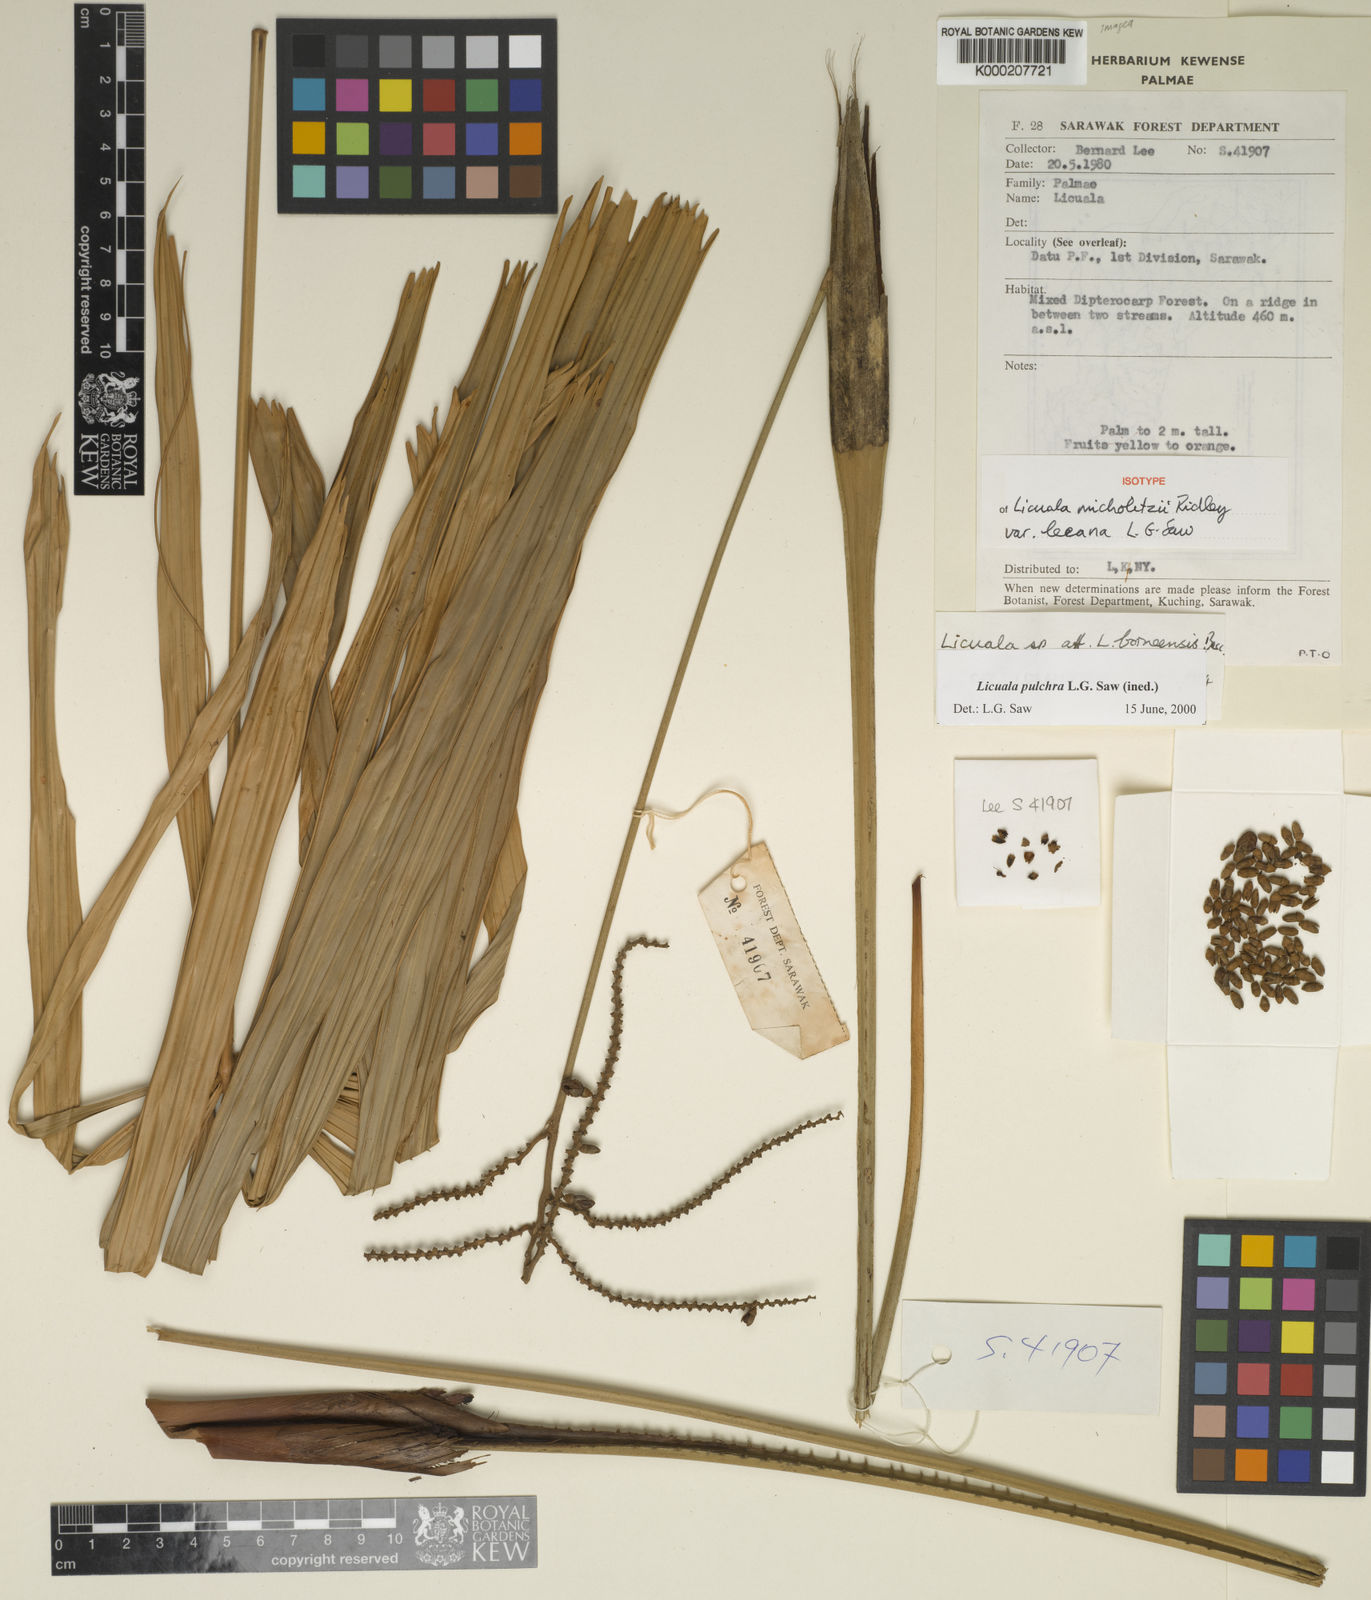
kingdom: Plantae
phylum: Tracheophyta
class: Liliopsida
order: Arecales
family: Arecaceae
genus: Licuala
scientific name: Licuala micholitzii
